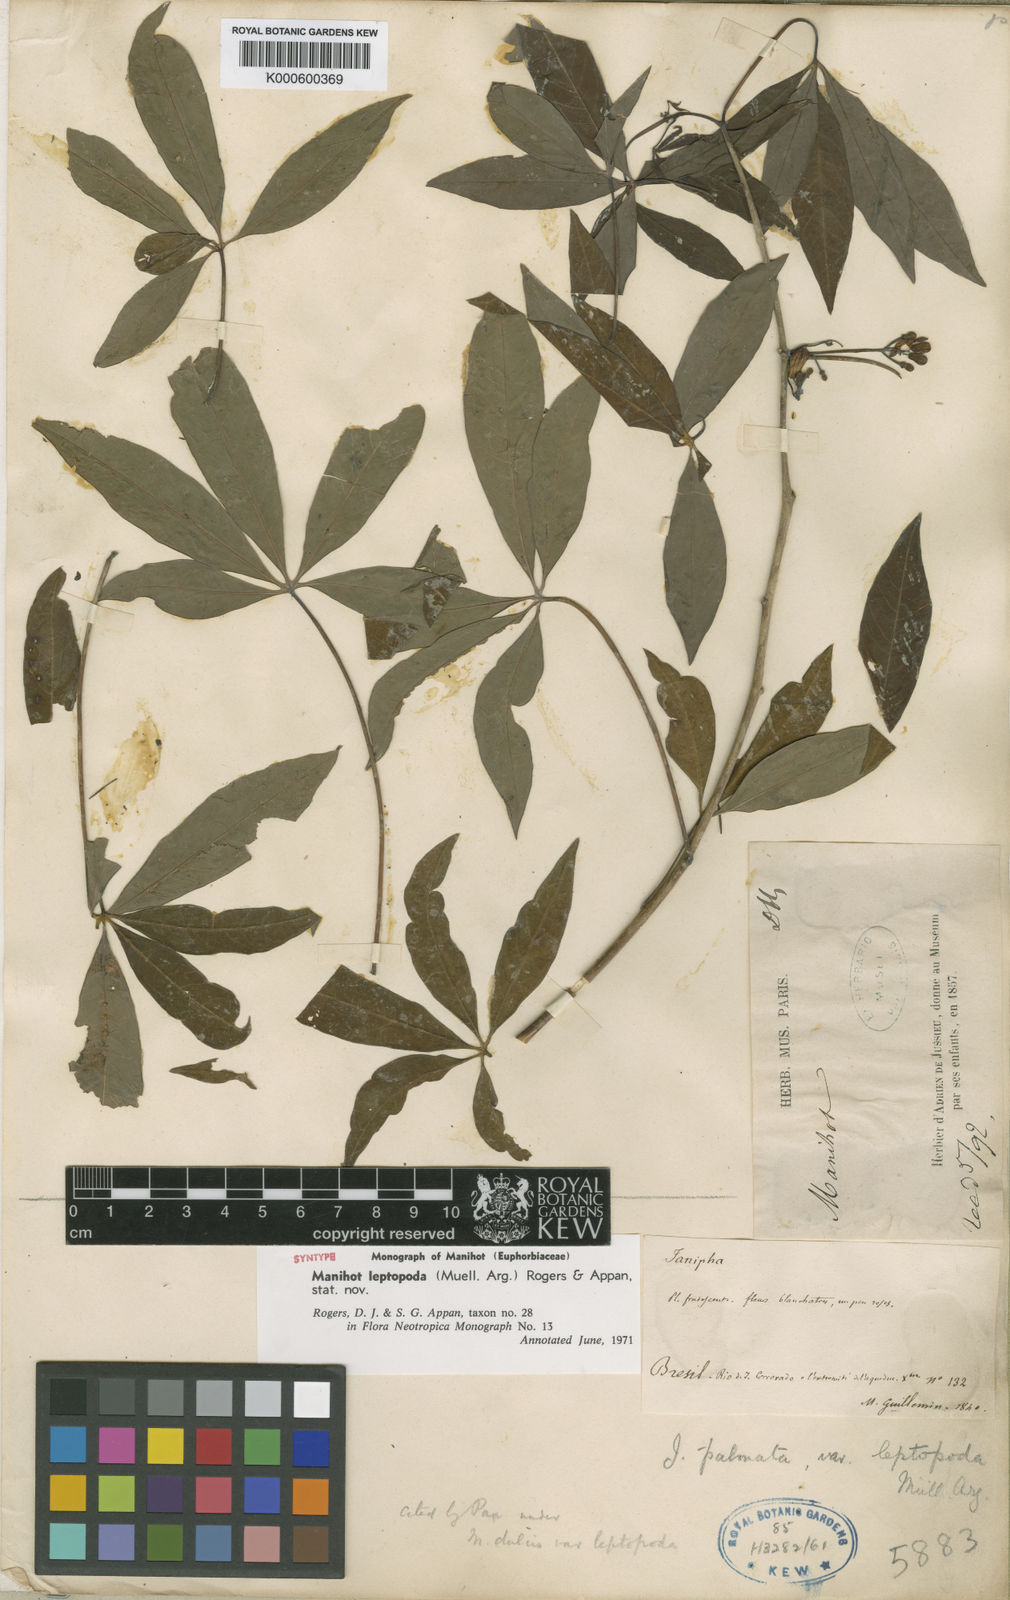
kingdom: Plantae
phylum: Tracheophyta
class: Magnoliopsida
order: Malpighiales
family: Euphorbiaceae
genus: Manihot
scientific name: Manihot
